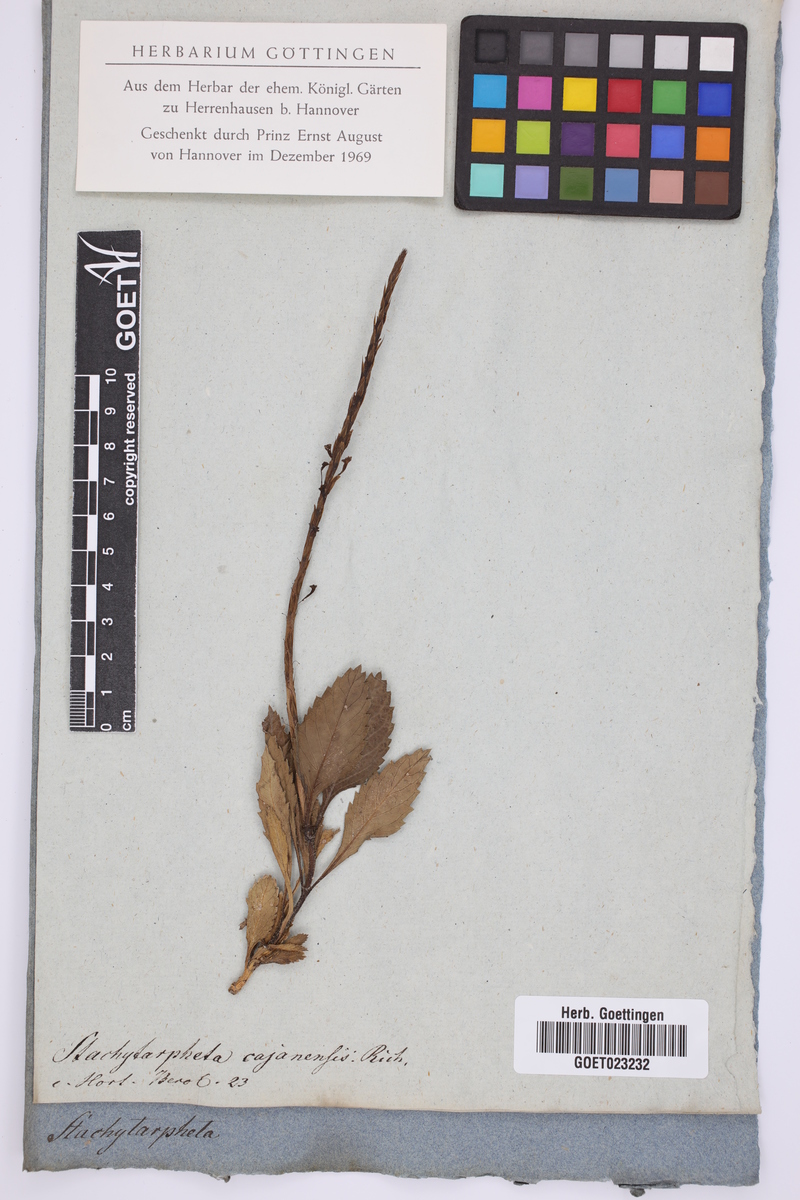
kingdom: Plantae
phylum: Tracheophyta
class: Magnoliopsida
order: Lamiales
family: Verbenaceae
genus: Stachytarpheta
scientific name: Stachytarpheta cajanensis
